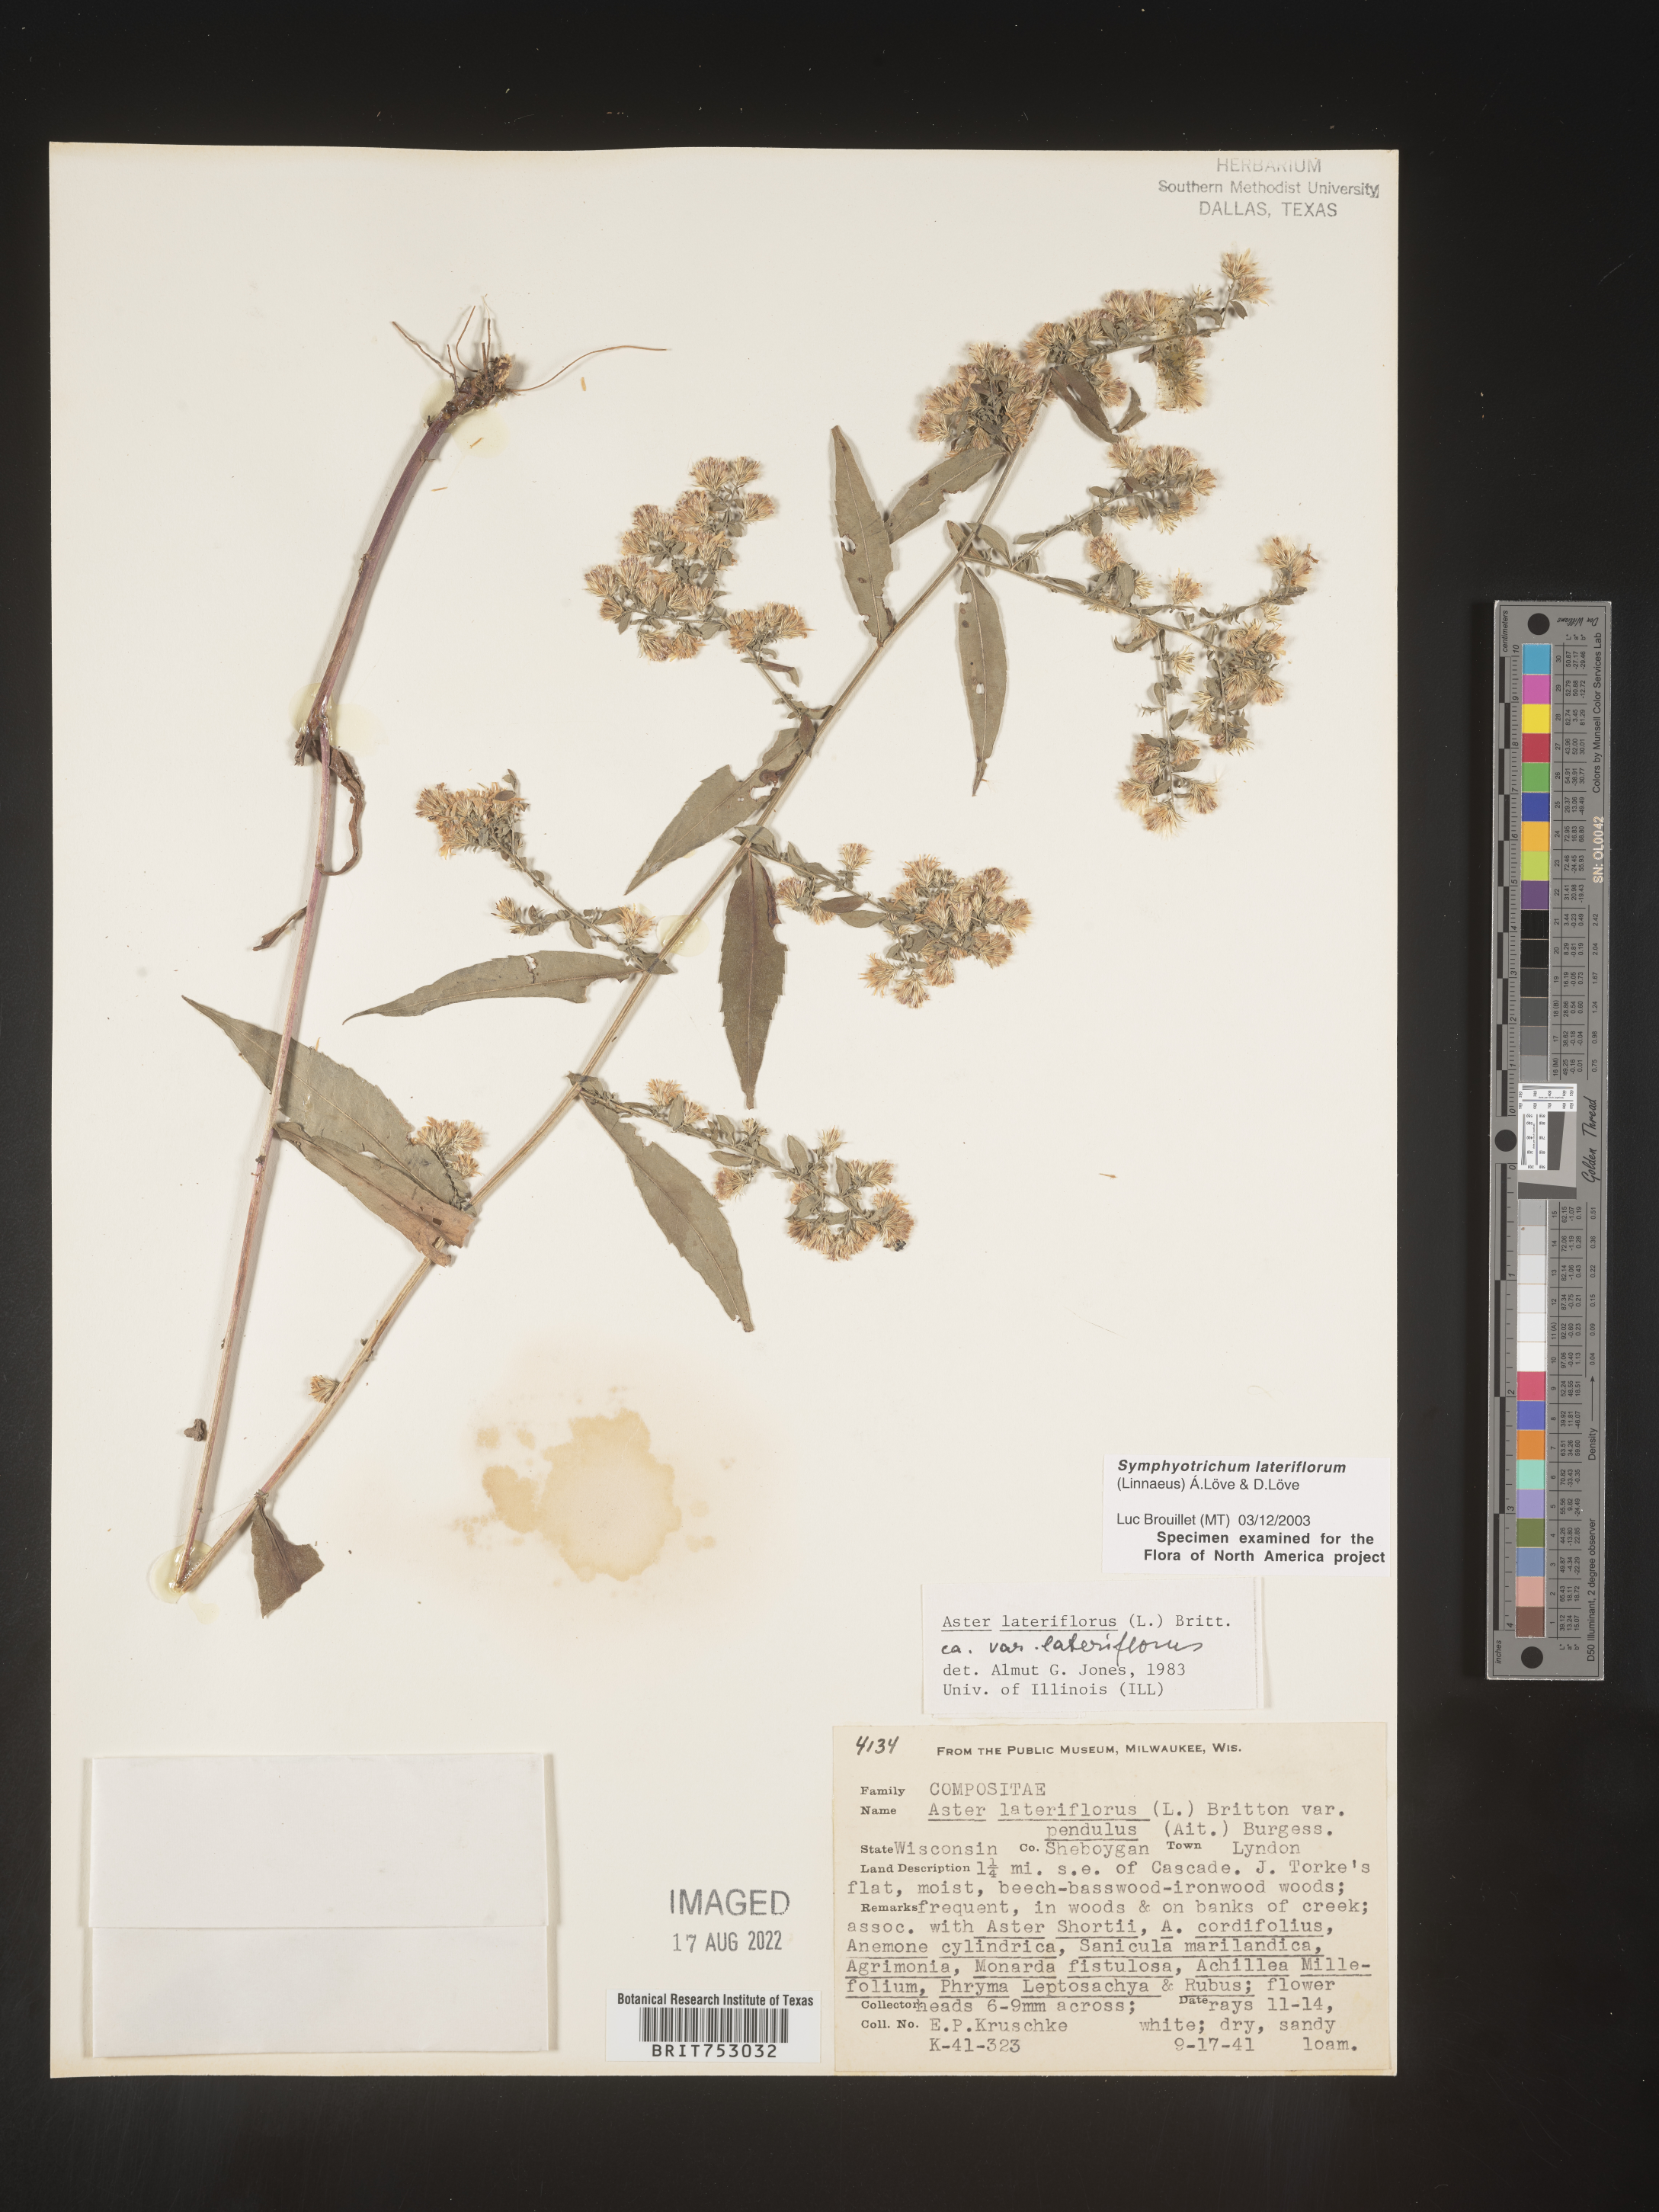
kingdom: Plantae
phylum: Tracheophyta
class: Magnoliopsida
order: Asterales
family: Asteraceae
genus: Symphyotrichum
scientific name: Symphyotrichum lateriflorum
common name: Calico aster
